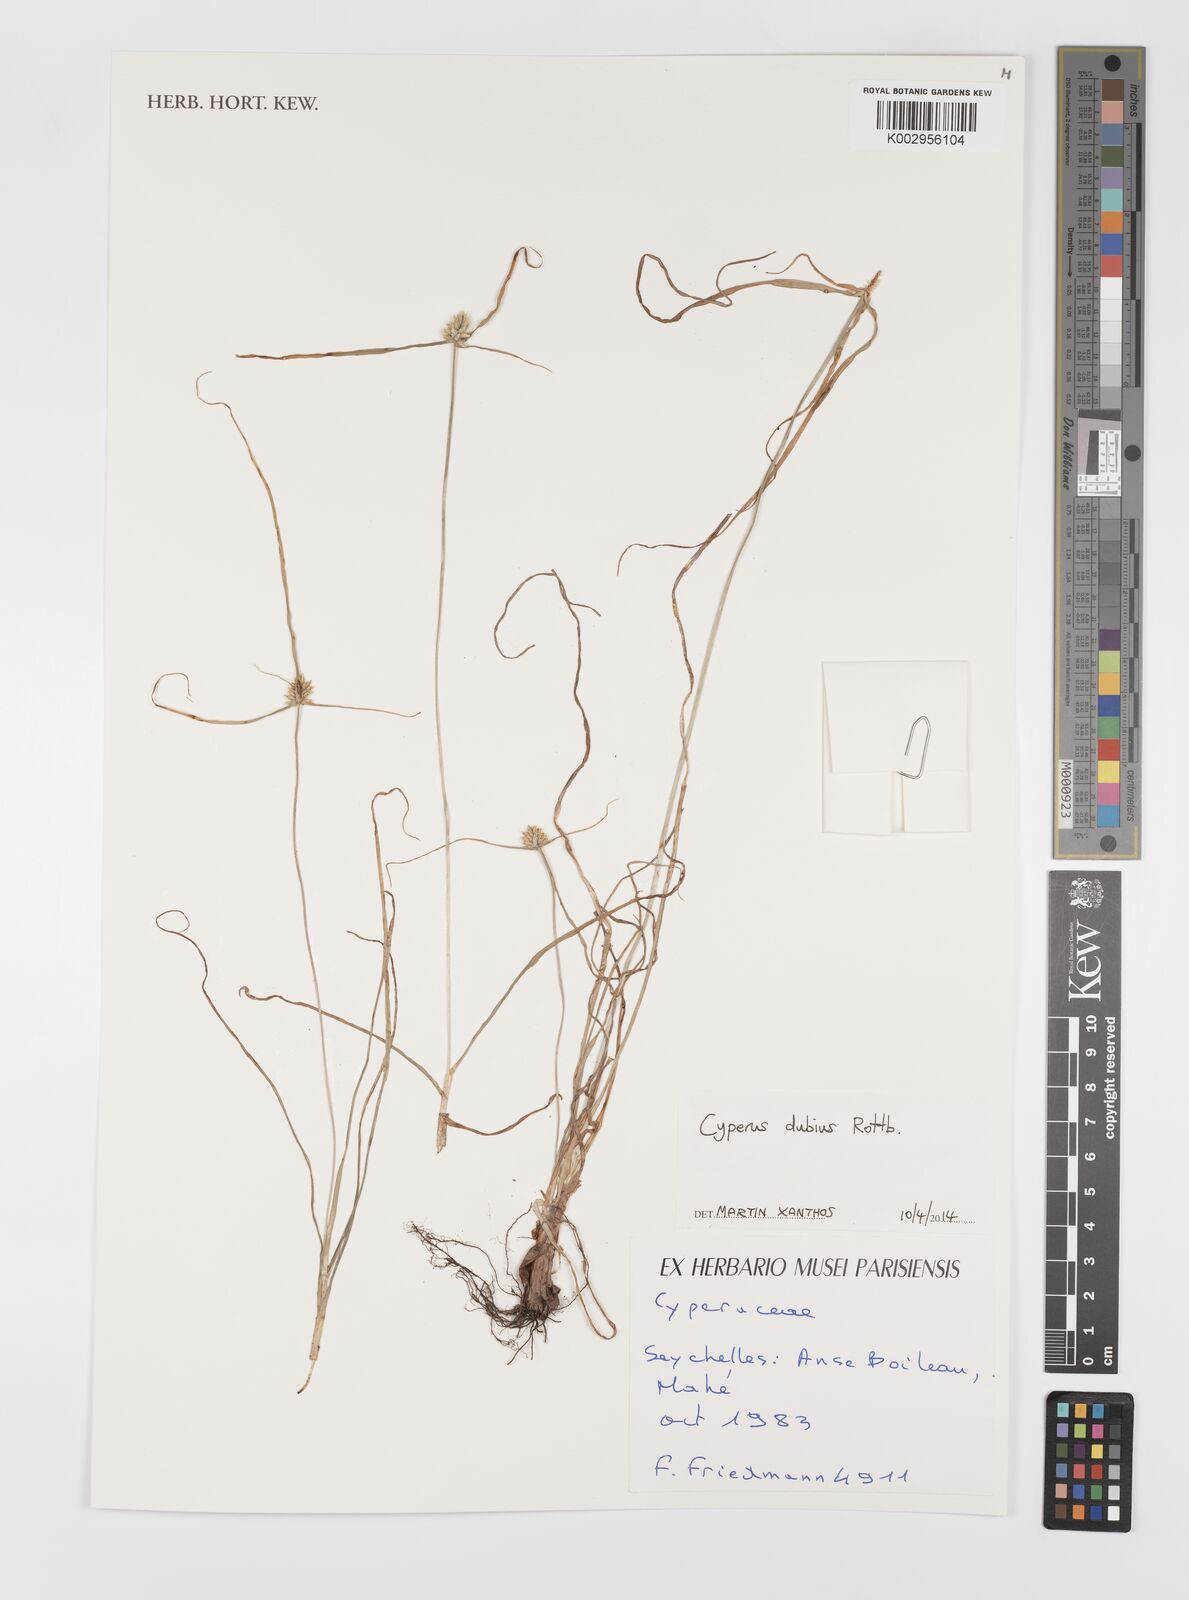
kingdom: Plantae
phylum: Tracheophyta
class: Liliopsida
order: Poales
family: Cyperaceae
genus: Cyperus
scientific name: Cyperus dubius
